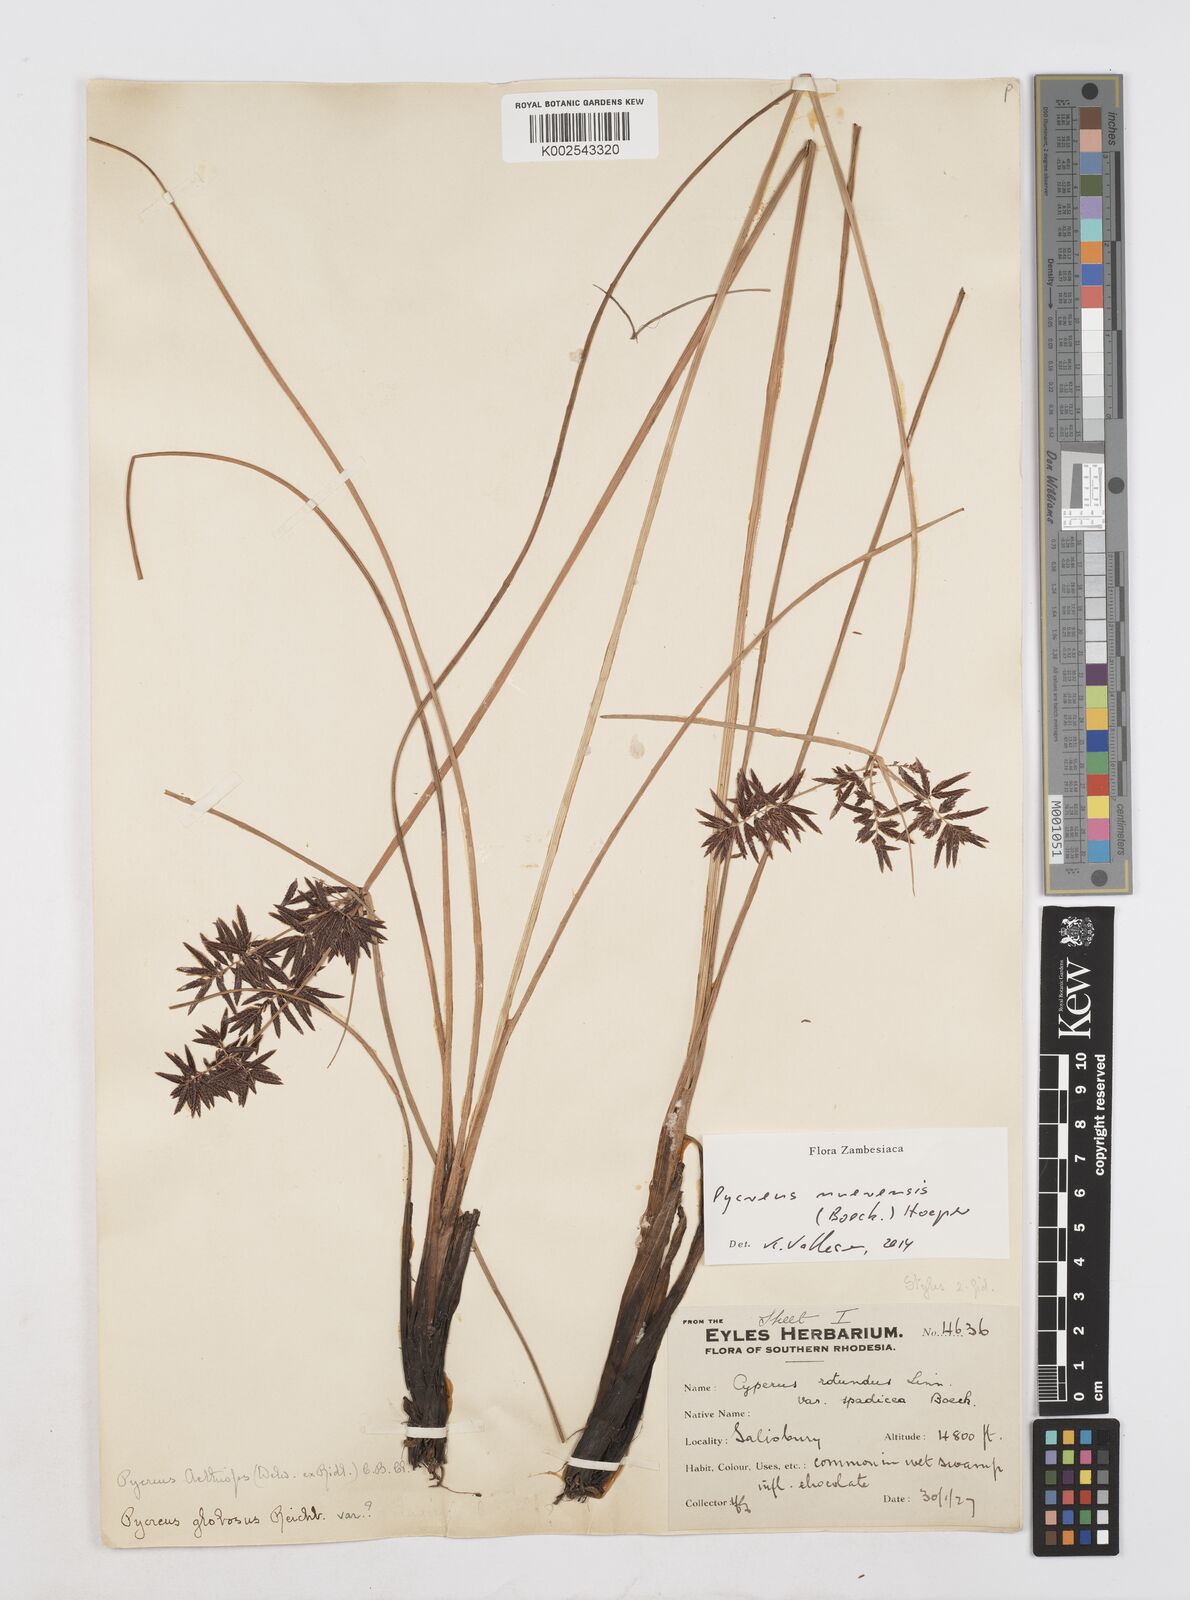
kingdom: Plantae
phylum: Tracheophyta
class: Liliopsida
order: Poales
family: Cyperaceae
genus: Cyperus
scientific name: Cyperus nuerensis
